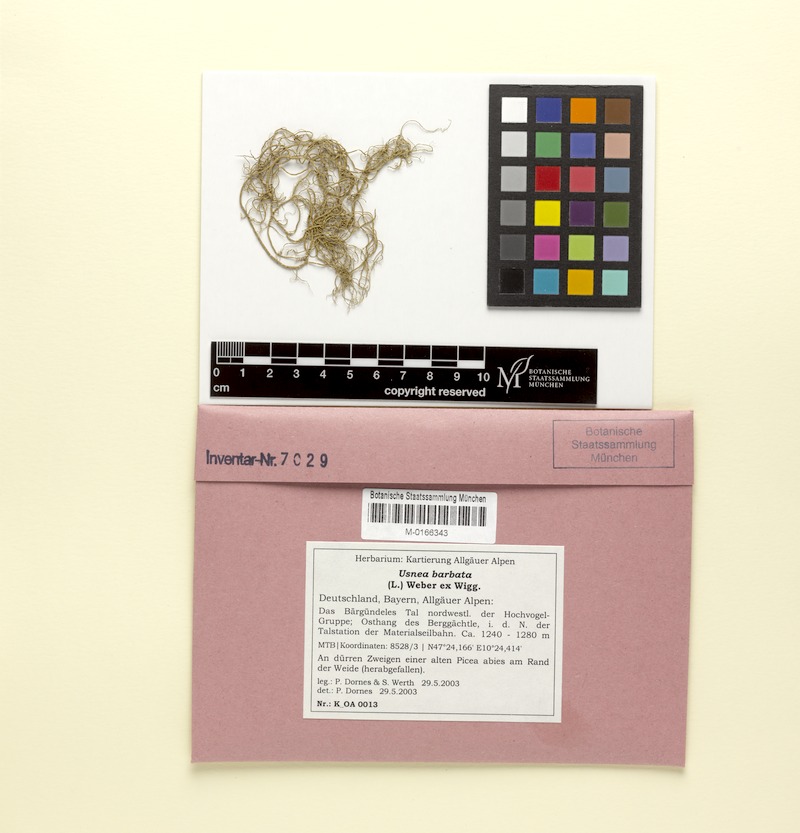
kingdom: Fungi
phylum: Ascomycota
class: Lecanoromycetes
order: Lecanorales
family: Parmeliaceae
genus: Usnea
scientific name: Usnea barbata
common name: Old man's beard lichen
